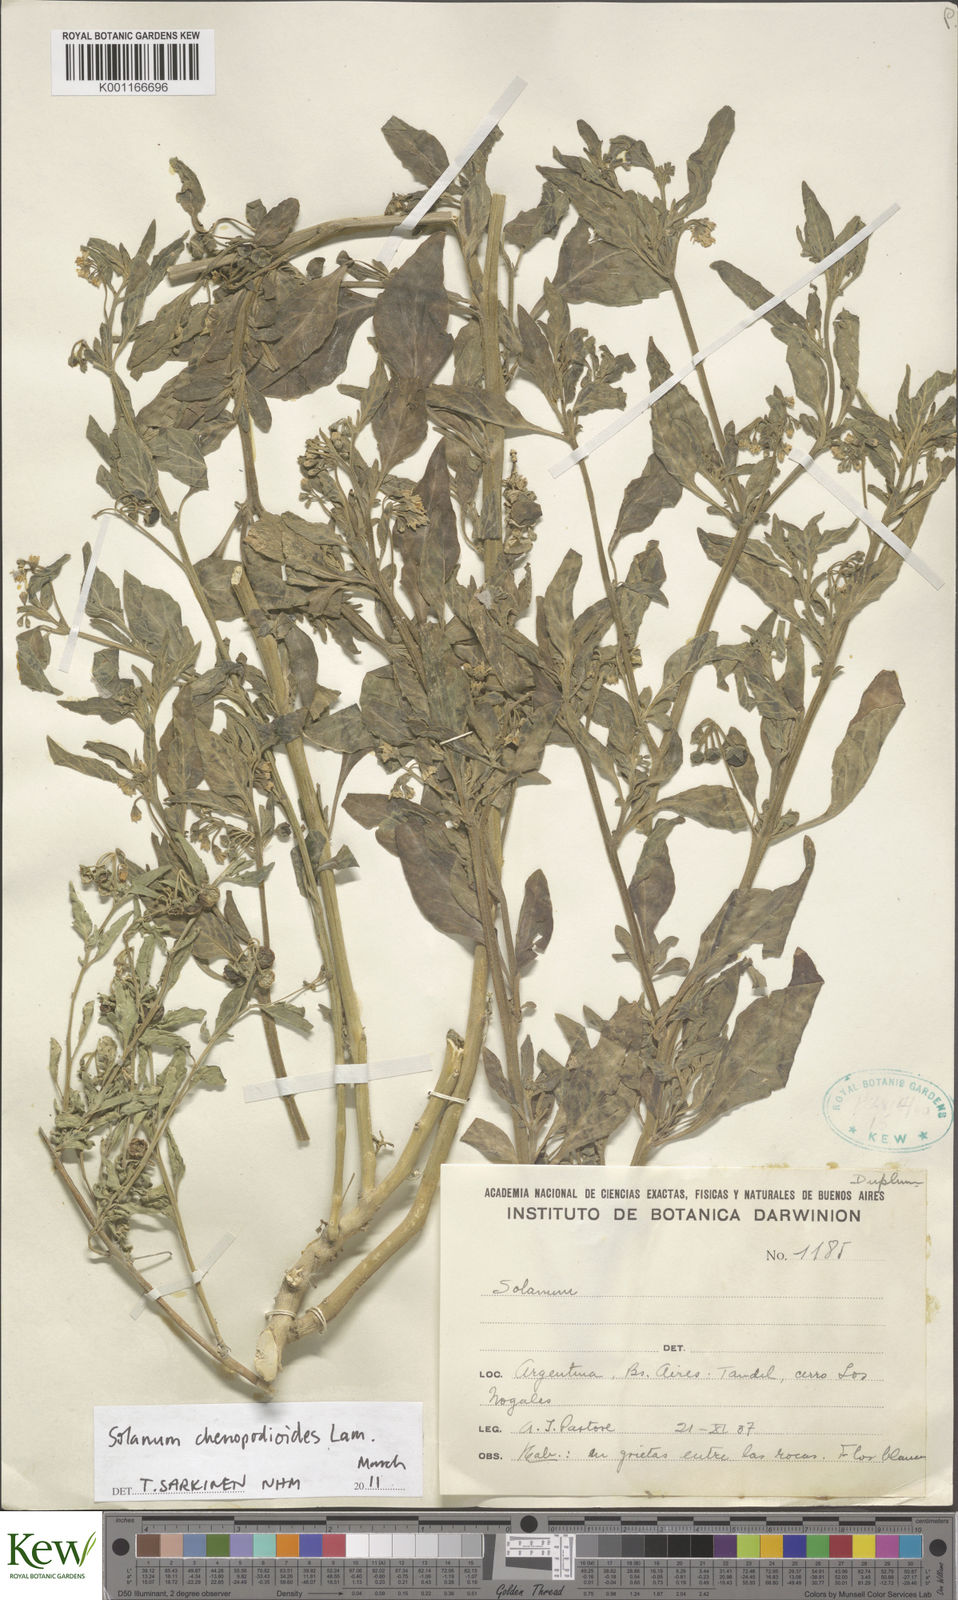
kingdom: Plantae
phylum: Tracheophyta
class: Magnoliopsida
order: Solanales
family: Solanaceae
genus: Solanum
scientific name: Solanum chenopodioides
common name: Tall nightshade
